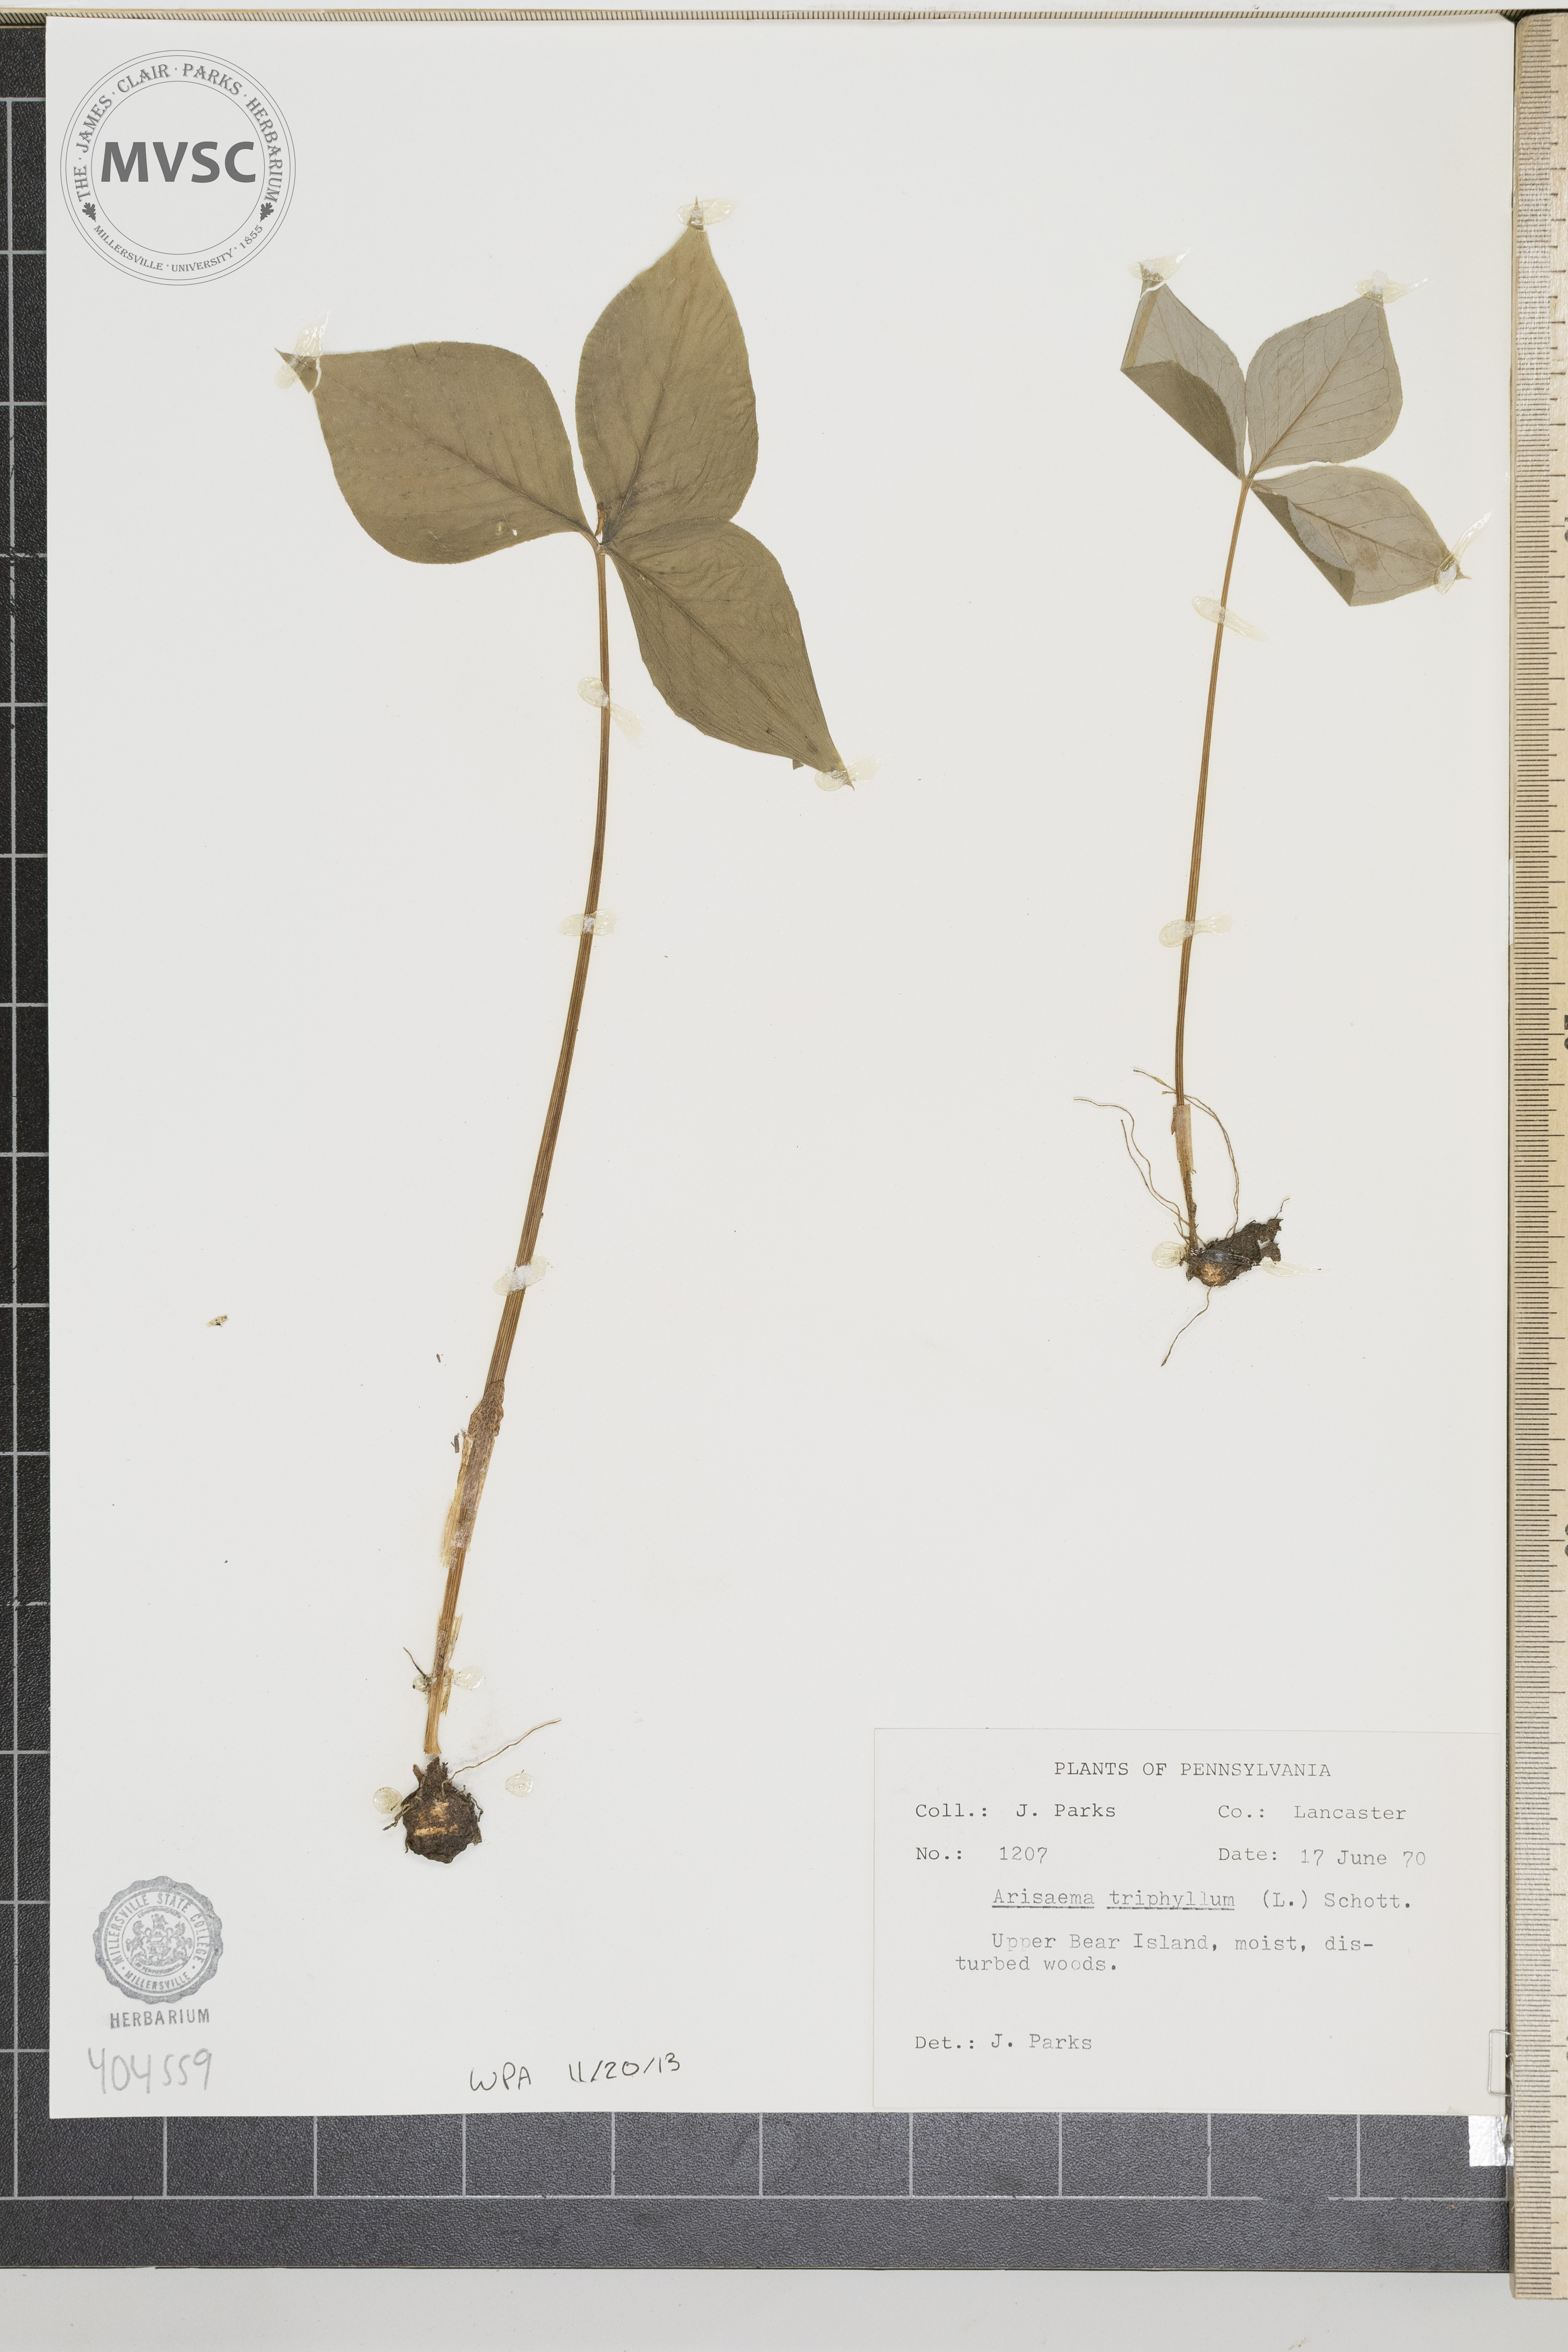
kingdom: Plantae
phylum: Tracheophyta
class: Liliopsida
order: Alismatales
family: Araceae
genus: Arisaema
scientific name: Arisaema triphyllum
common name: Jack-in-the-pulpit
